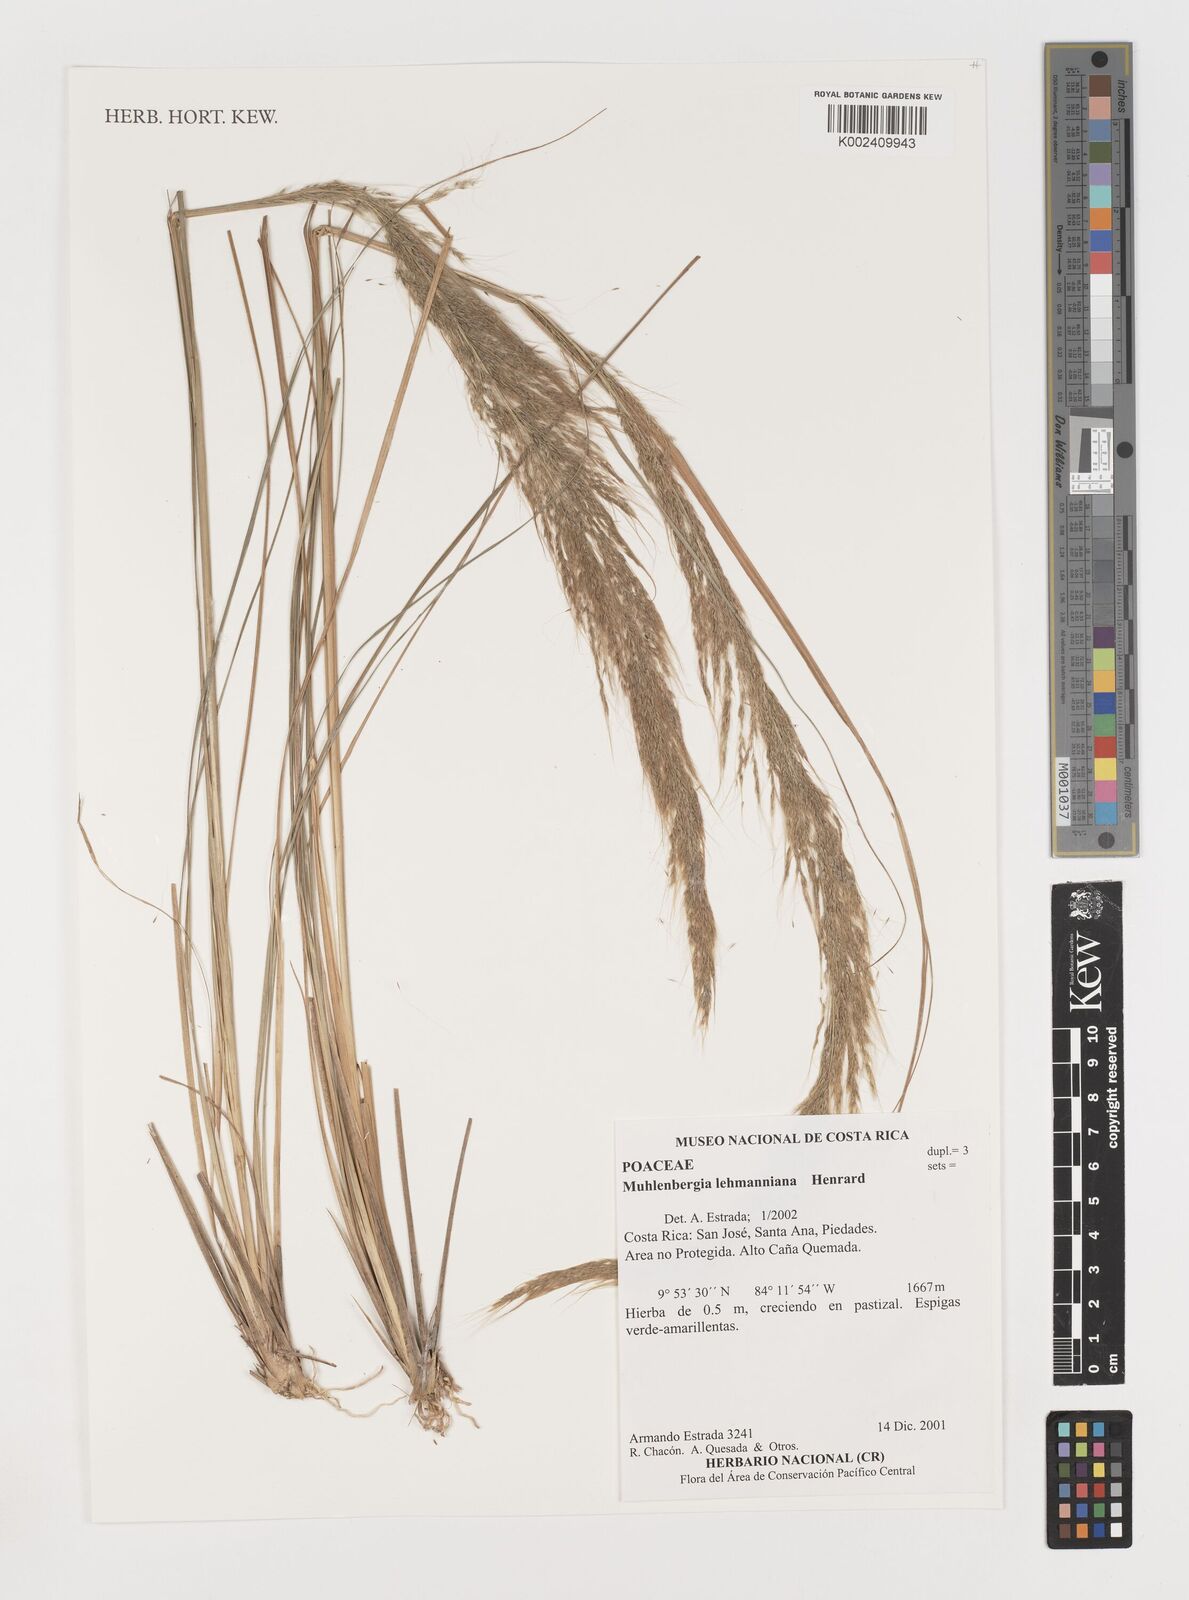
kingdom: Plantae
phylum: Tracheophyta
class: Liliopsida
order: Poales
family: Poaceae
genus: Muhlenbergia
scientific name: Muhlenbergia lehmanniana
